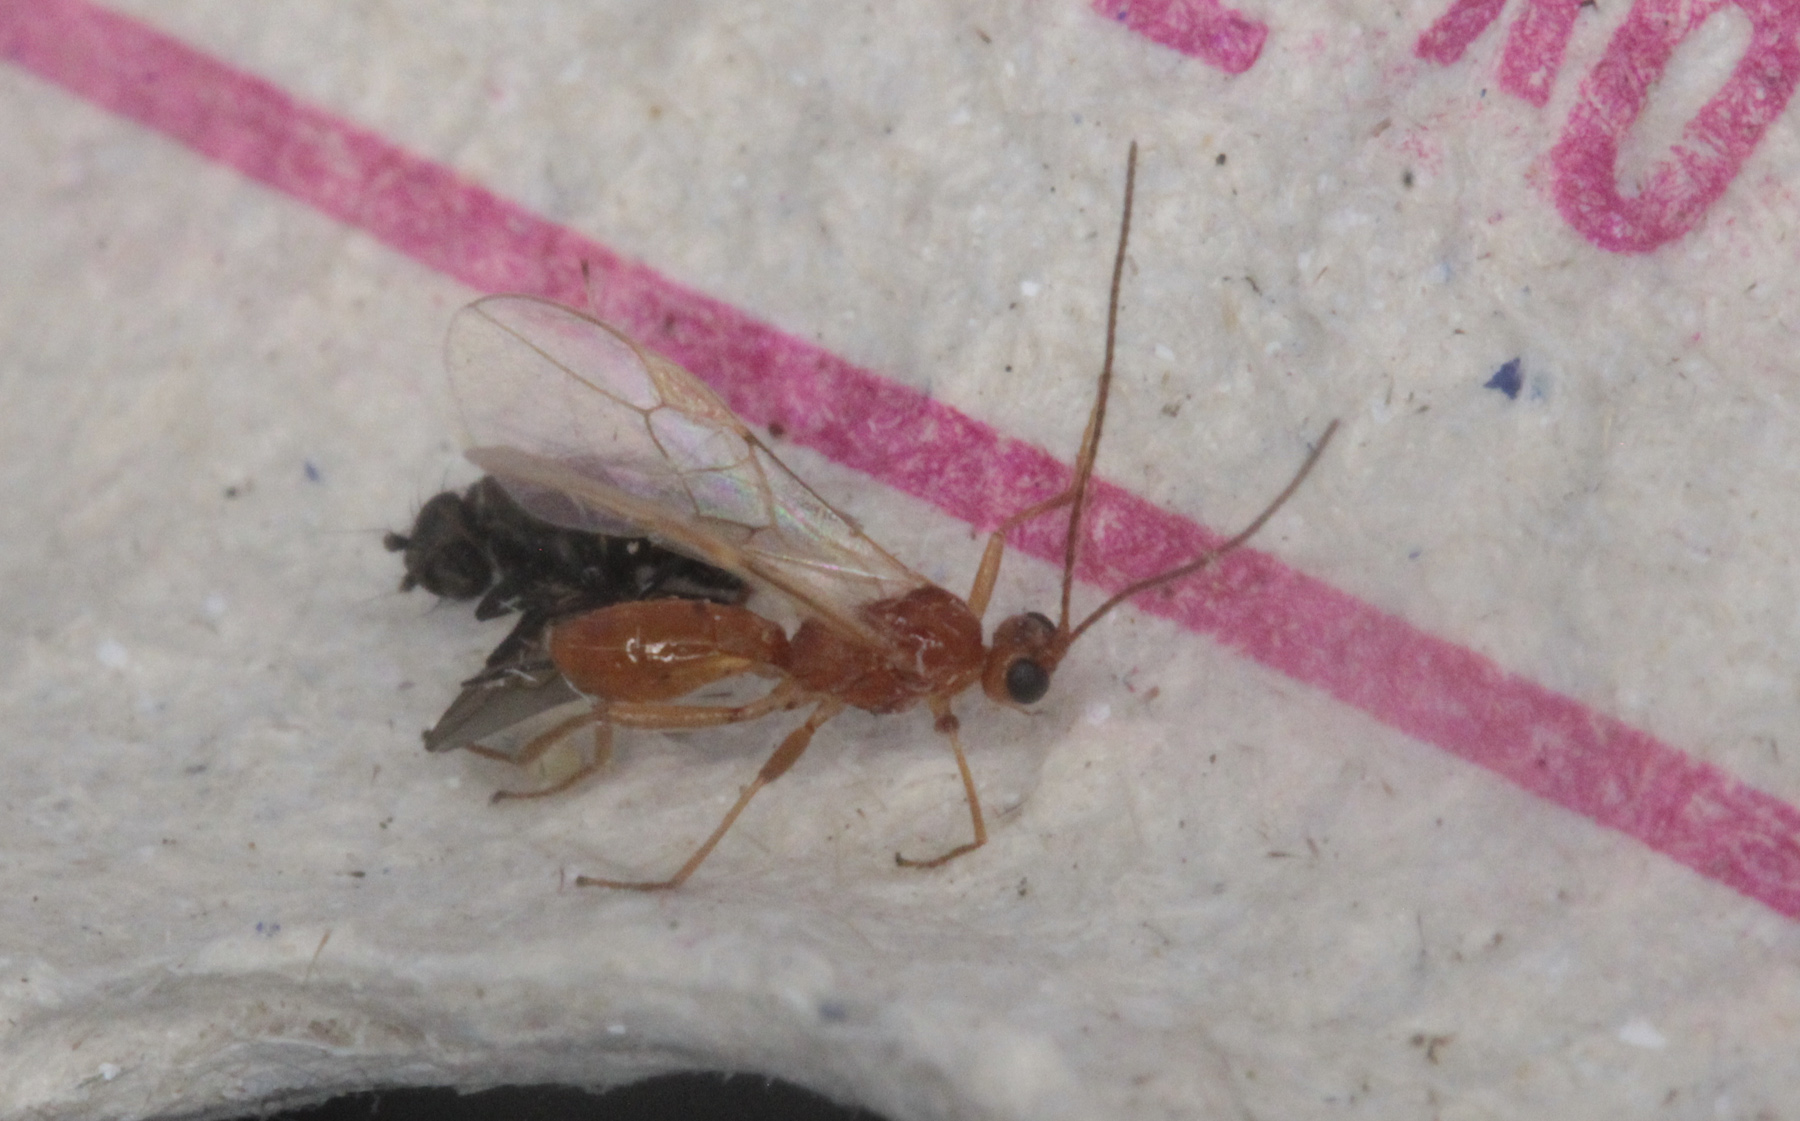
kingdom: Animalia
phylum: Arthropoda
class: Insecta
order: Hymenoptera
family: Braconidae
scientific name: Braconidae
